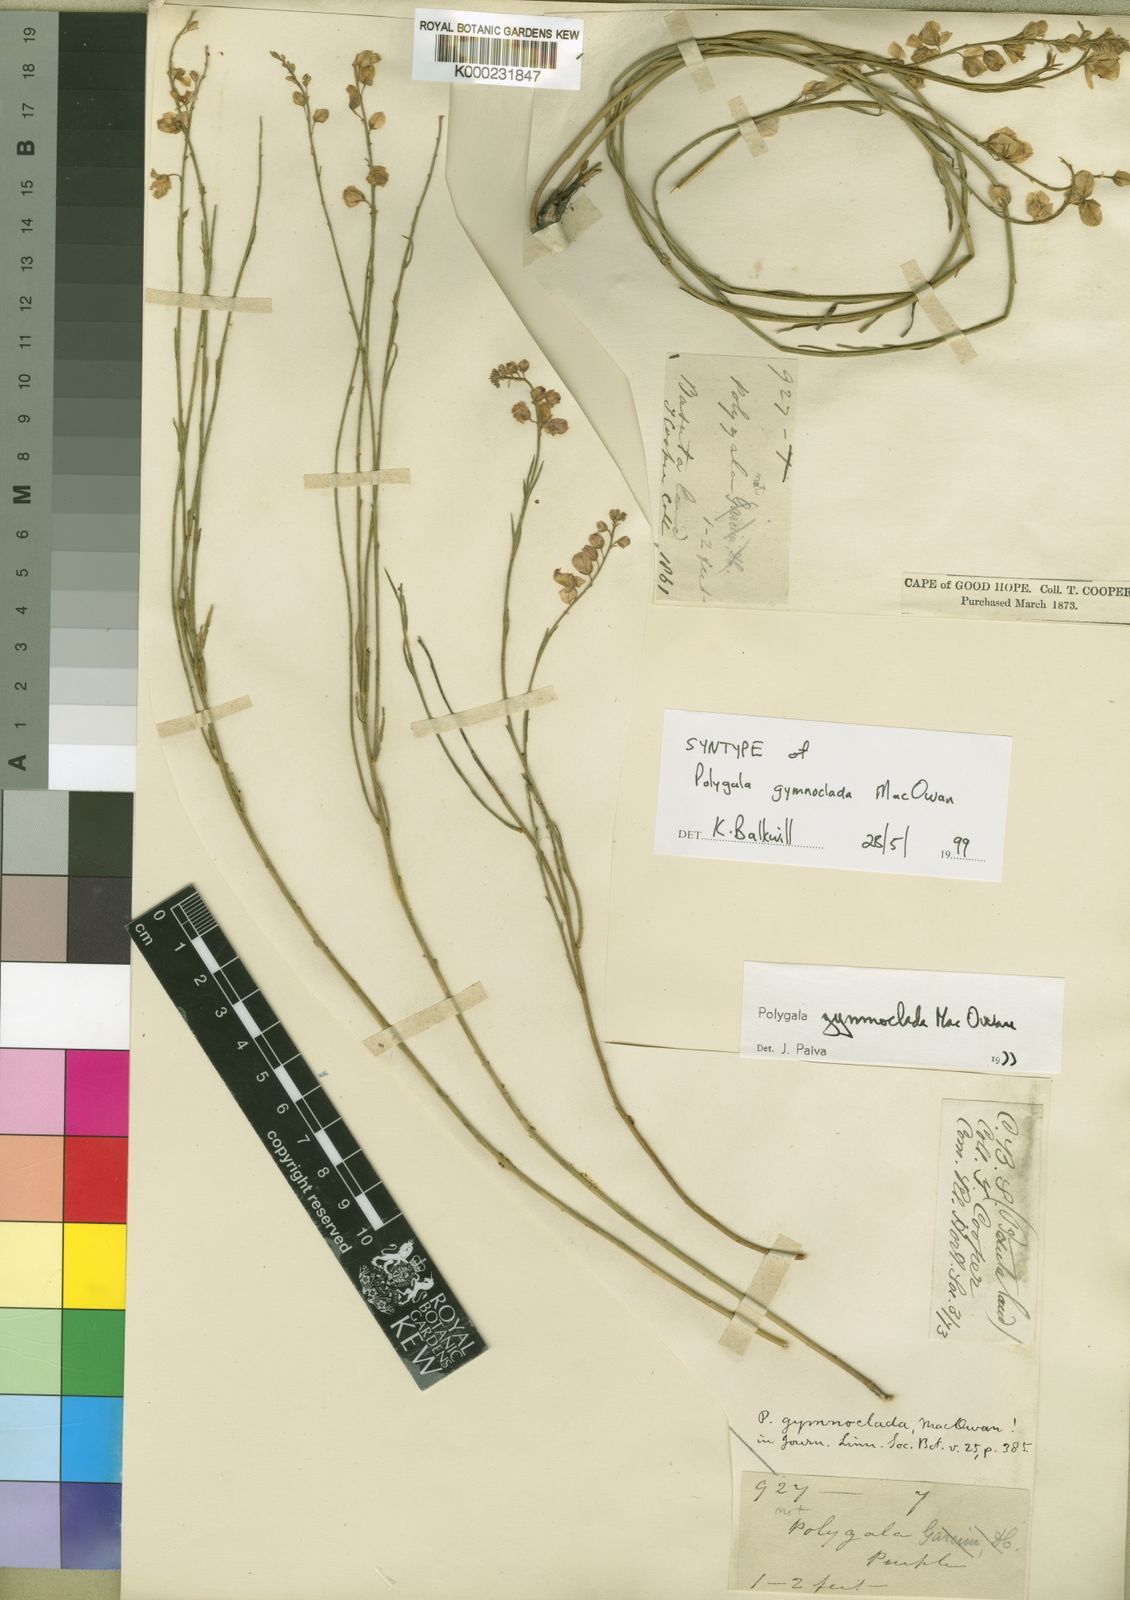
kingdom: Plantae
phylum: Tracheophyta
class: Magnoliopsida
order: Fabales
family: Polygalaceae
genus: Polygala
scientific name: Polygala gymnoclada
